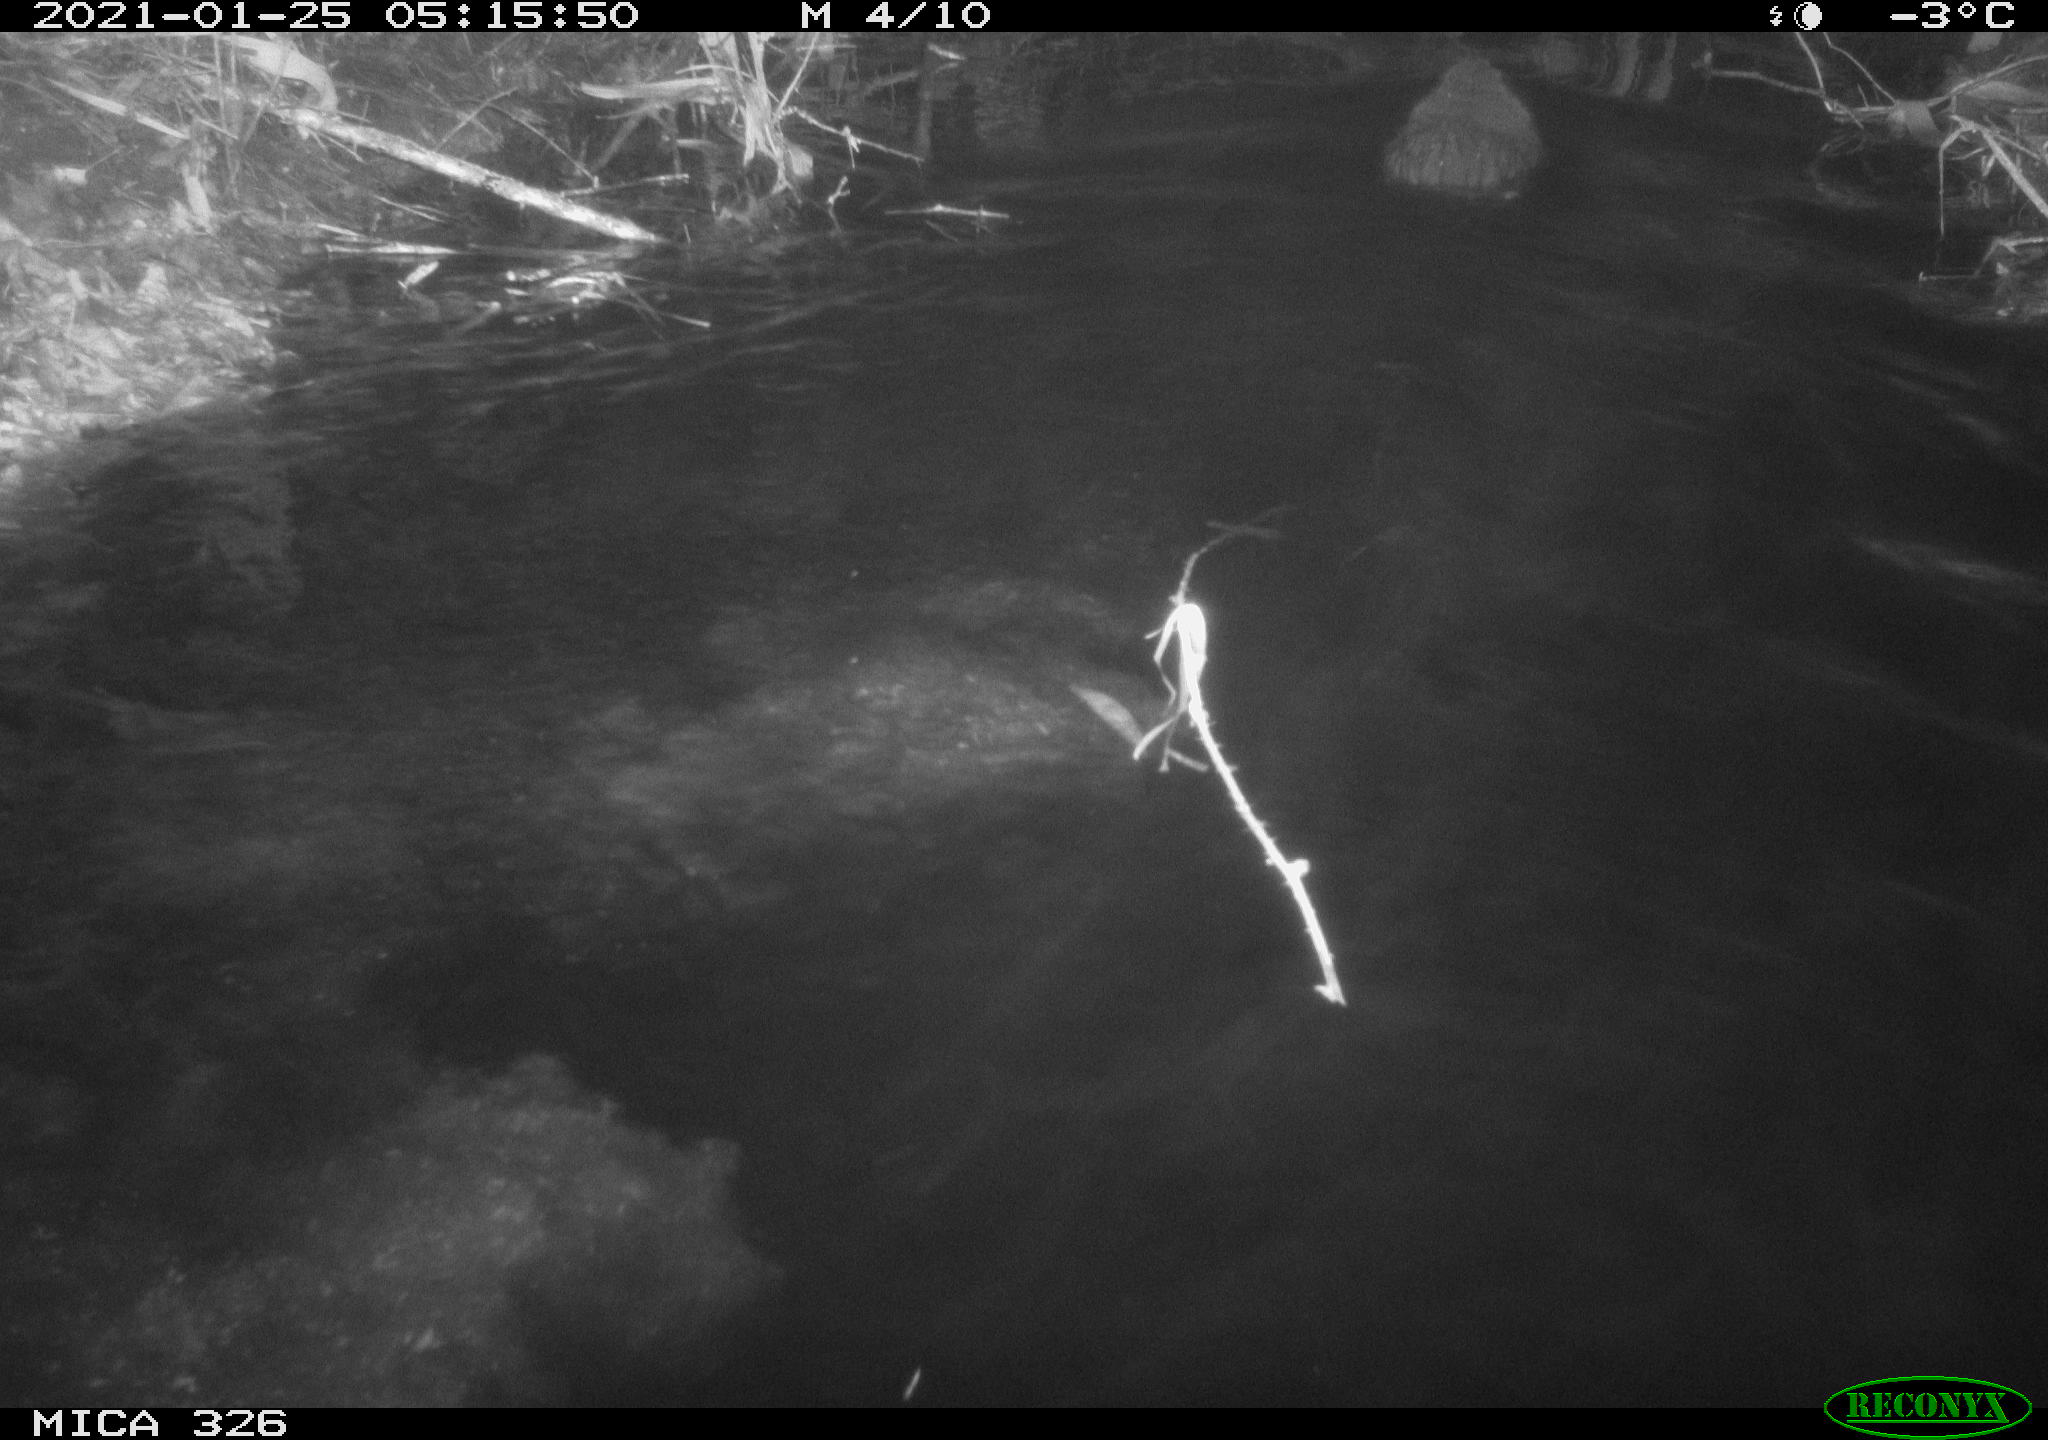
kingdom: Animalia
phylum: Chordata
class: Mammalia
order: Rodentia
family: Myocastoridae
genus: Myocastor
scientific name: Myocastor coypus
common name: Coypu
